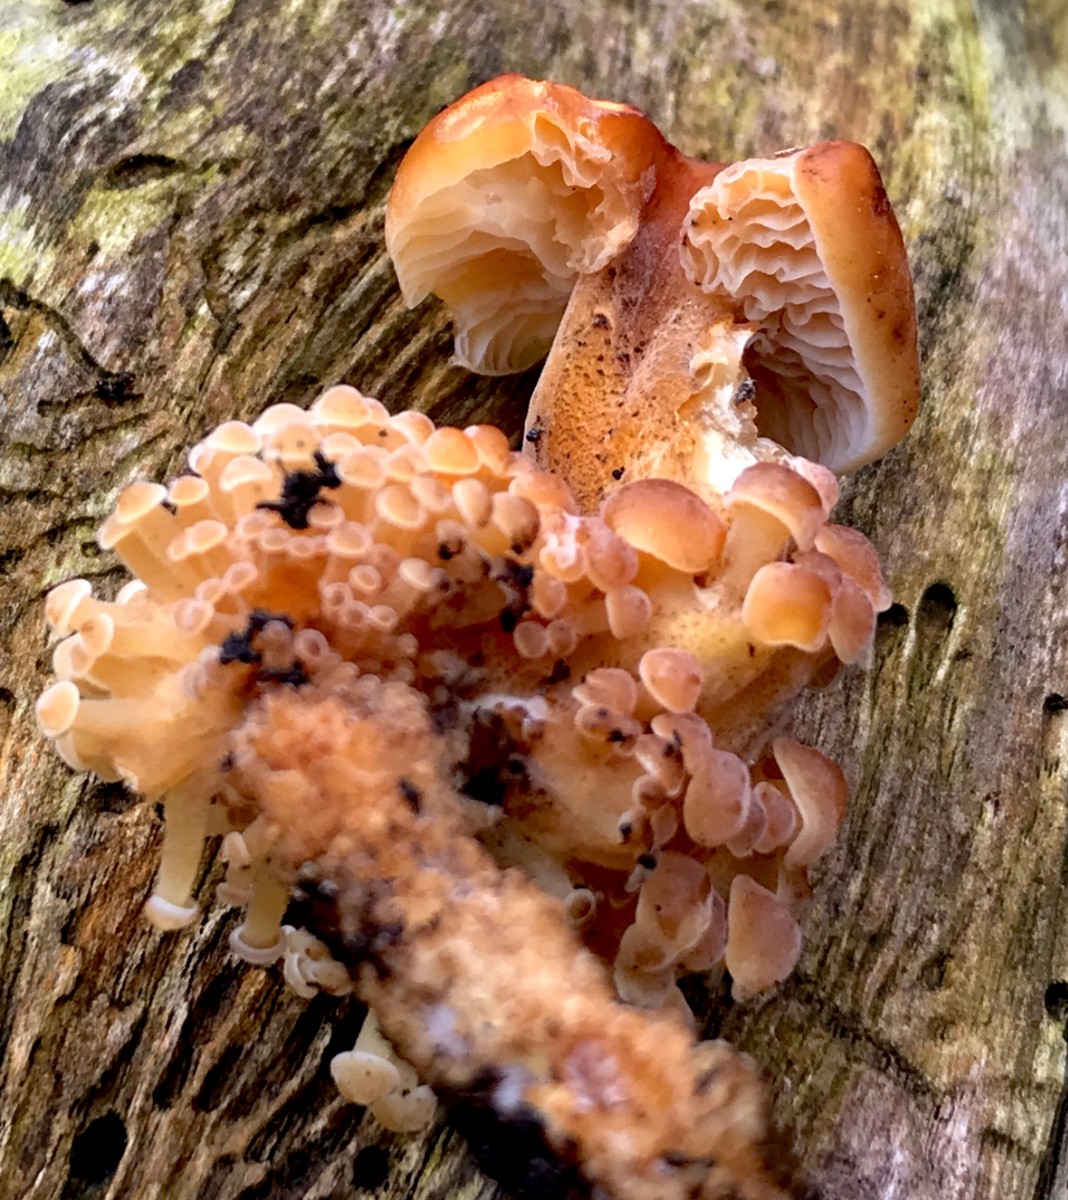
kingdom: Fungi
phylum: Basidiomycota
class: Agaricomycetes
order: Agaricales
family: Physalacriaceae
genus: Flammulina
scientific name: Flammulina velutipes
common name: gul fløjlsfod
